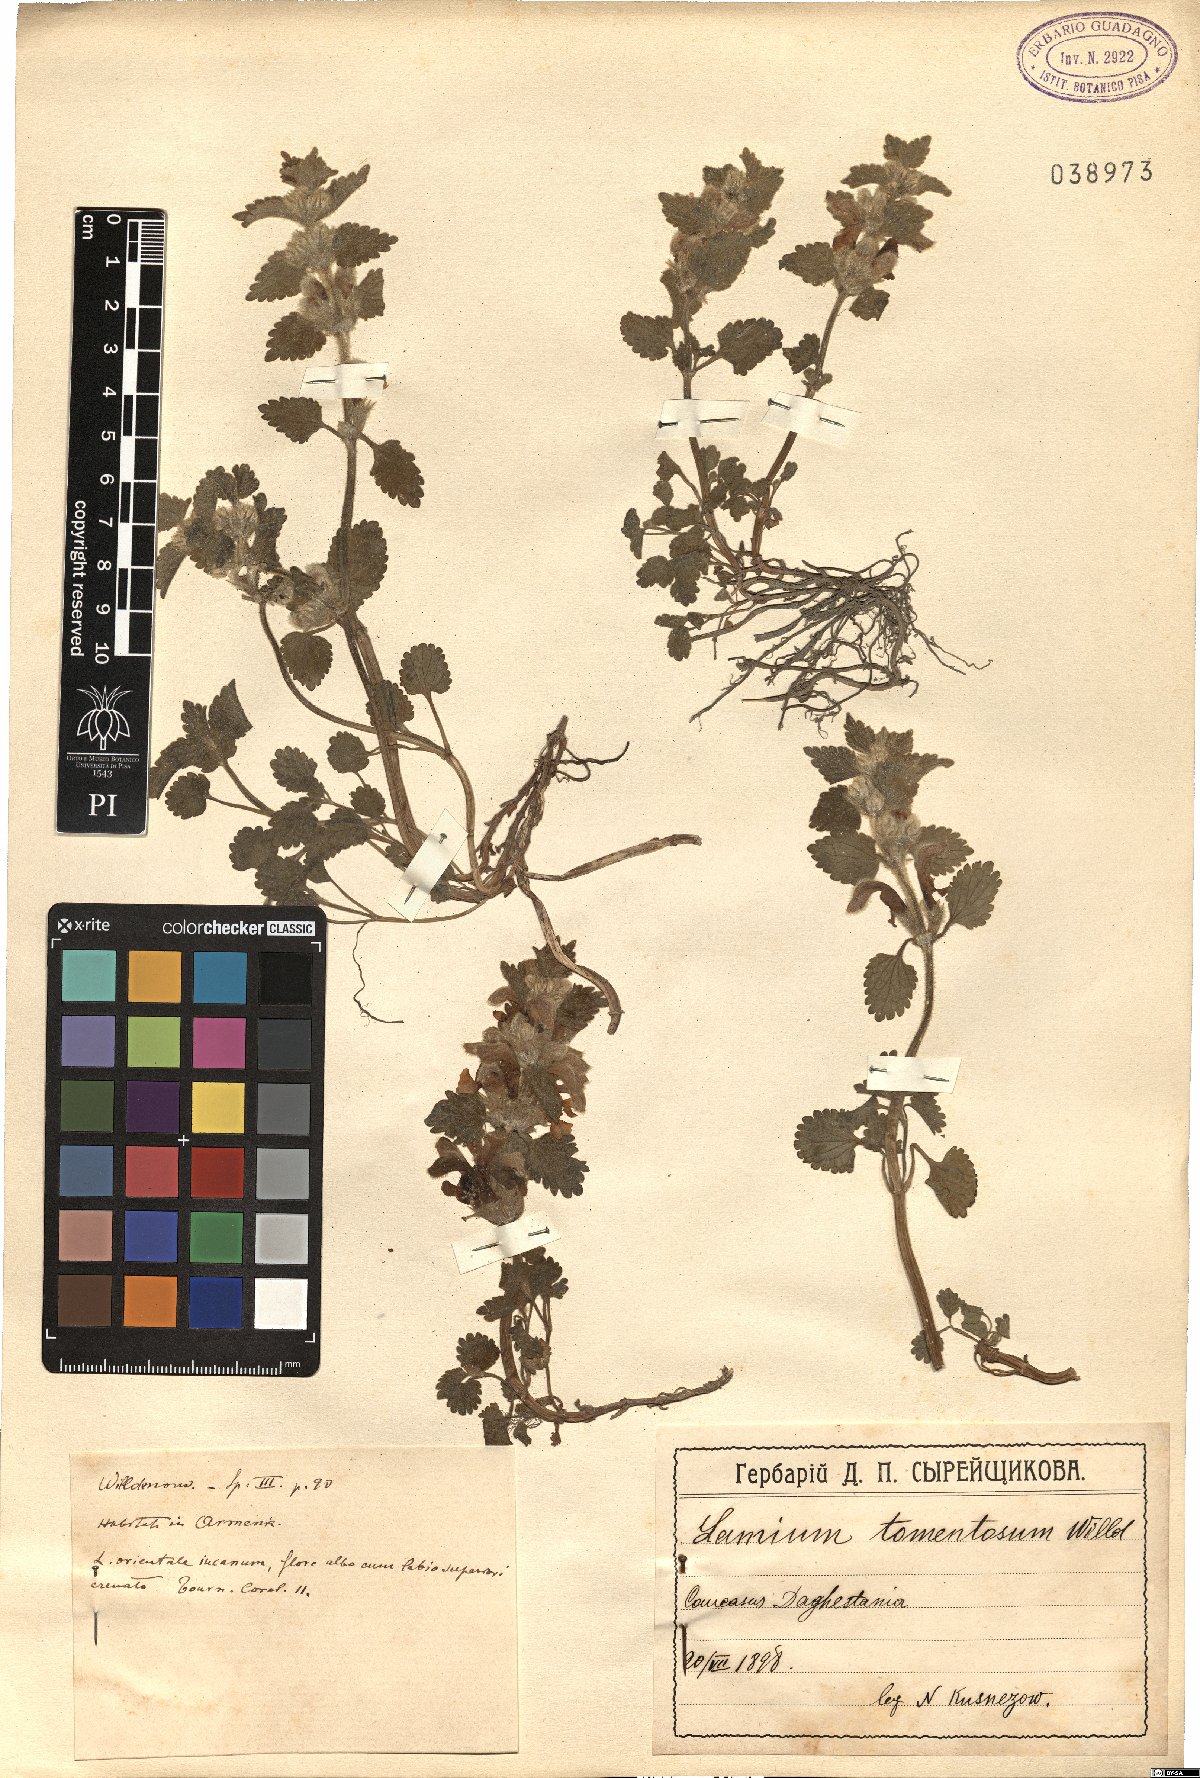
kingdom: Plantae
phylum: Tracheophyta
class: Magnoliopsida
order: Lamiales
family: Lamiaceae
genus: Lamium
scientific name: Lamium tomentosum
